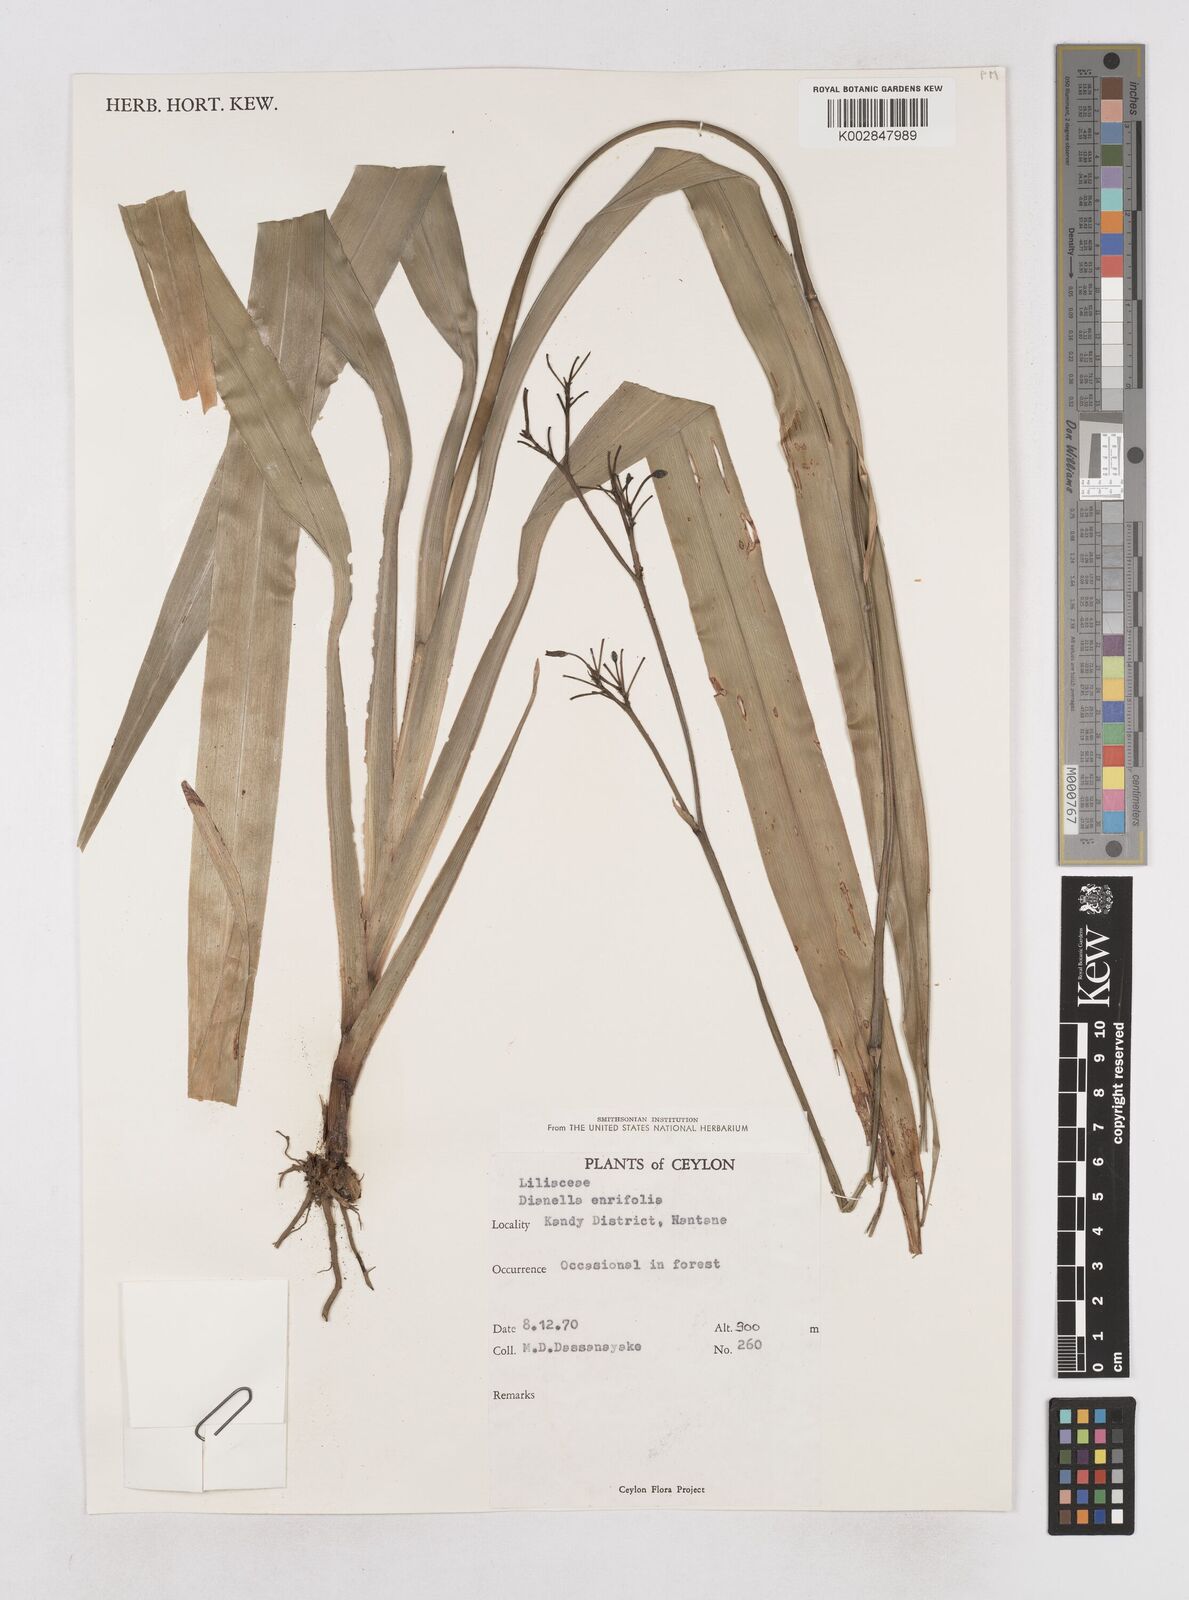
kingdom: Plantae
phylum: Tracheophyta
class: Liliopsida
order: Asparagales
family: Asphodelaceae
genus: Dianella
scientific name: Dianella ensifolia
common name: New zealand lilyplant
